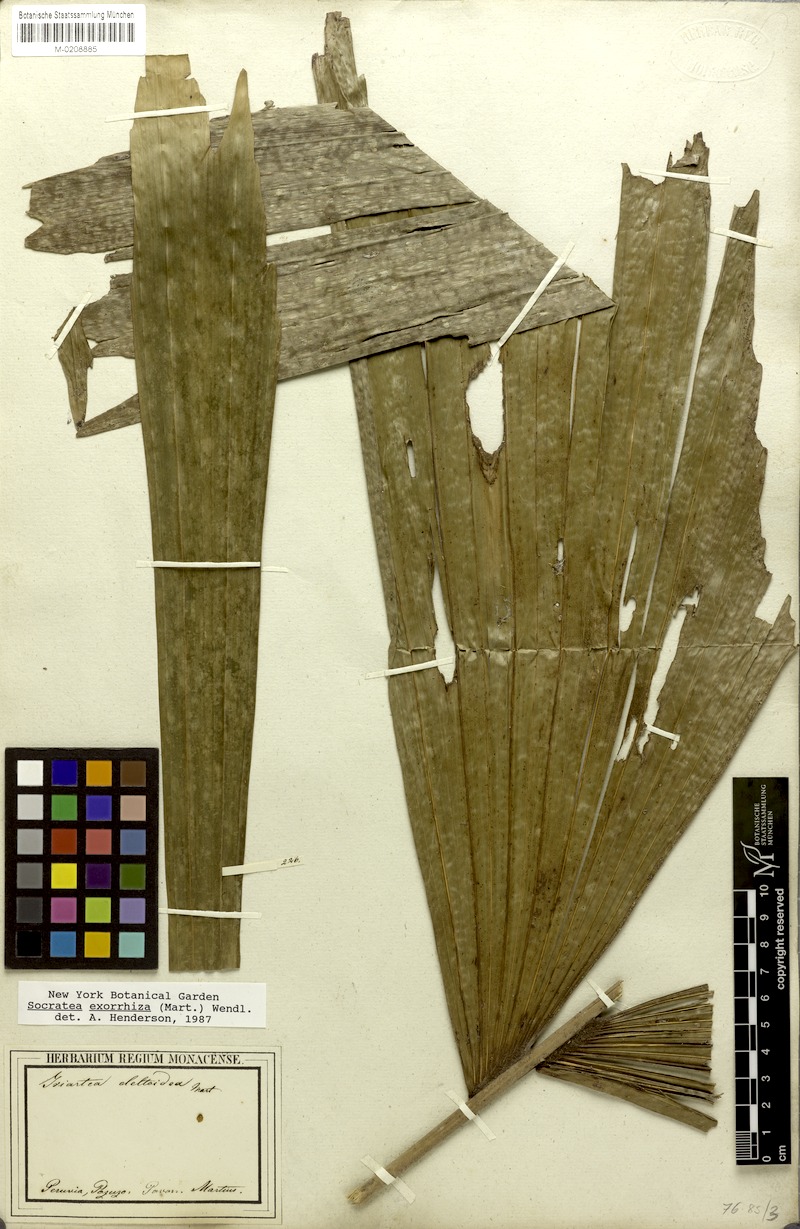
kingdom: Plantae
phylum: Tracheophyta
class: Liliopsida
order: Arecales
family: Arecaceae
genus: Socratea
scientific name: Socratea exorrhiza
